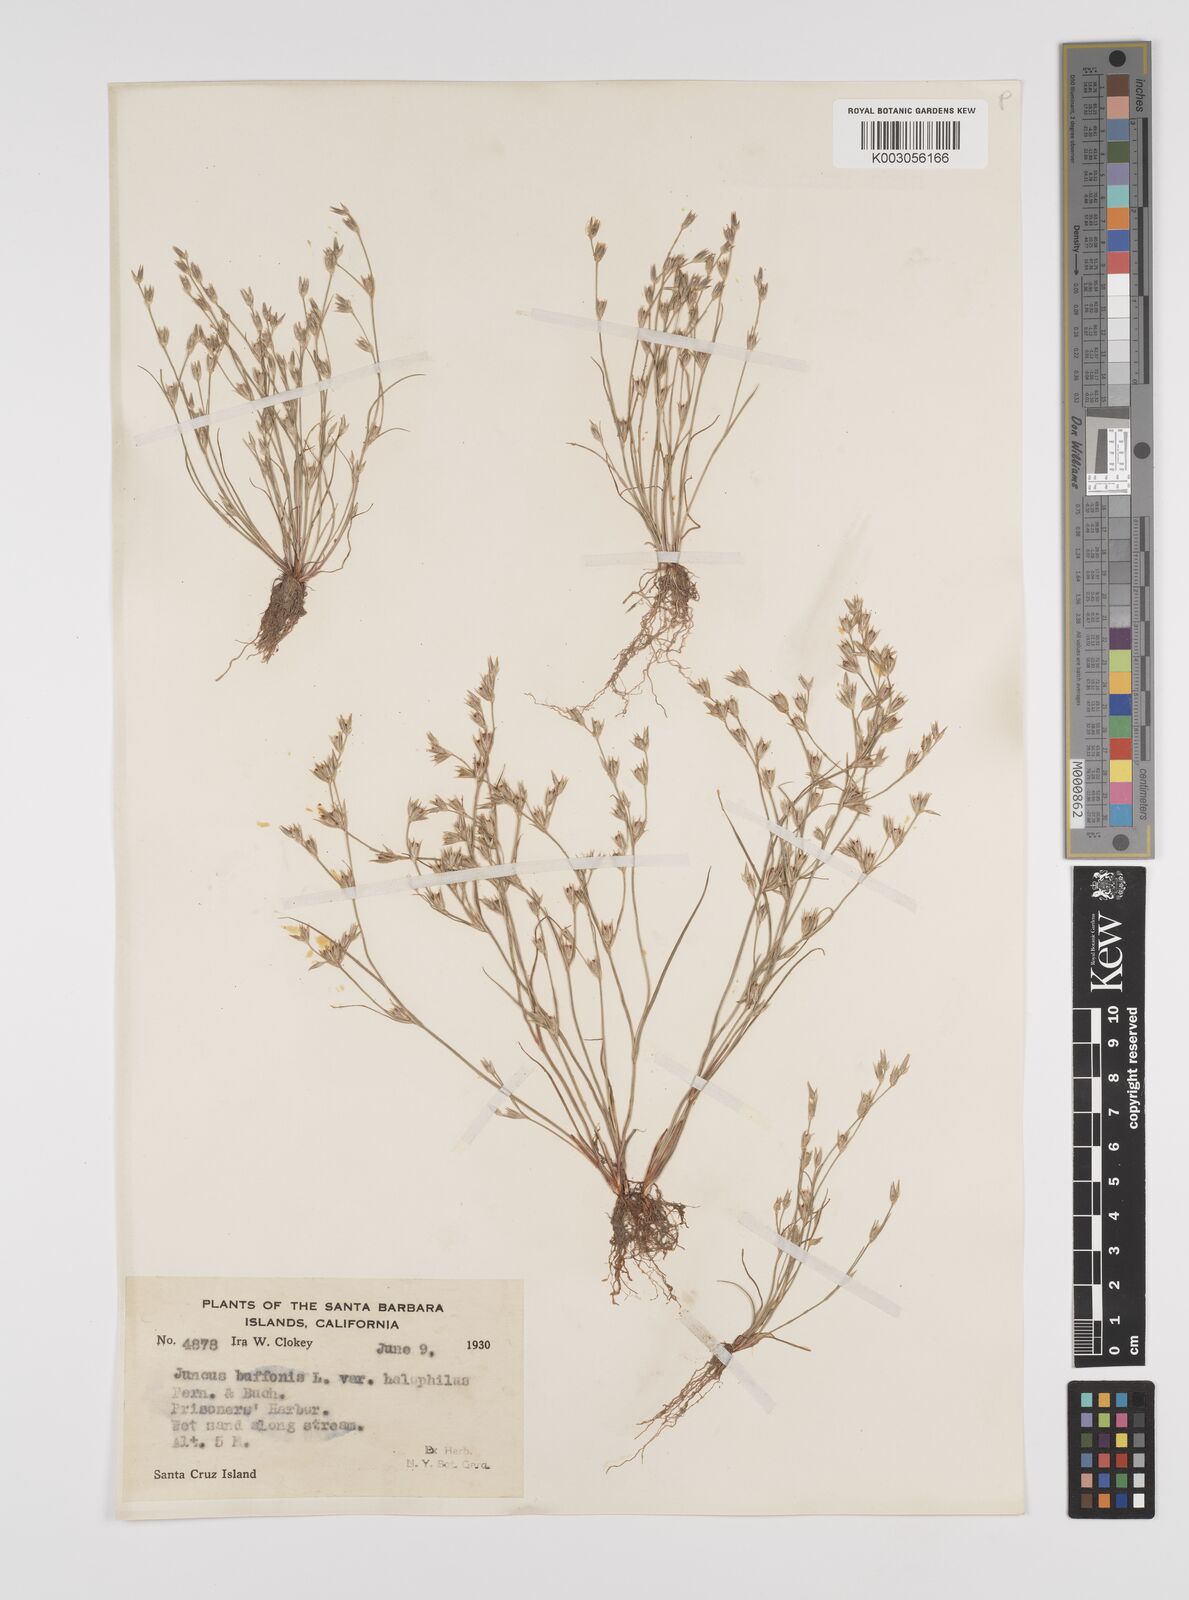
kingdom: Plantae
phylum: Tracheophyta
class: Liliopsida
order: Poales
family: Juncaceae
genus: Juncus
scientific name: Juncus bufonius
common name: Toad rush
